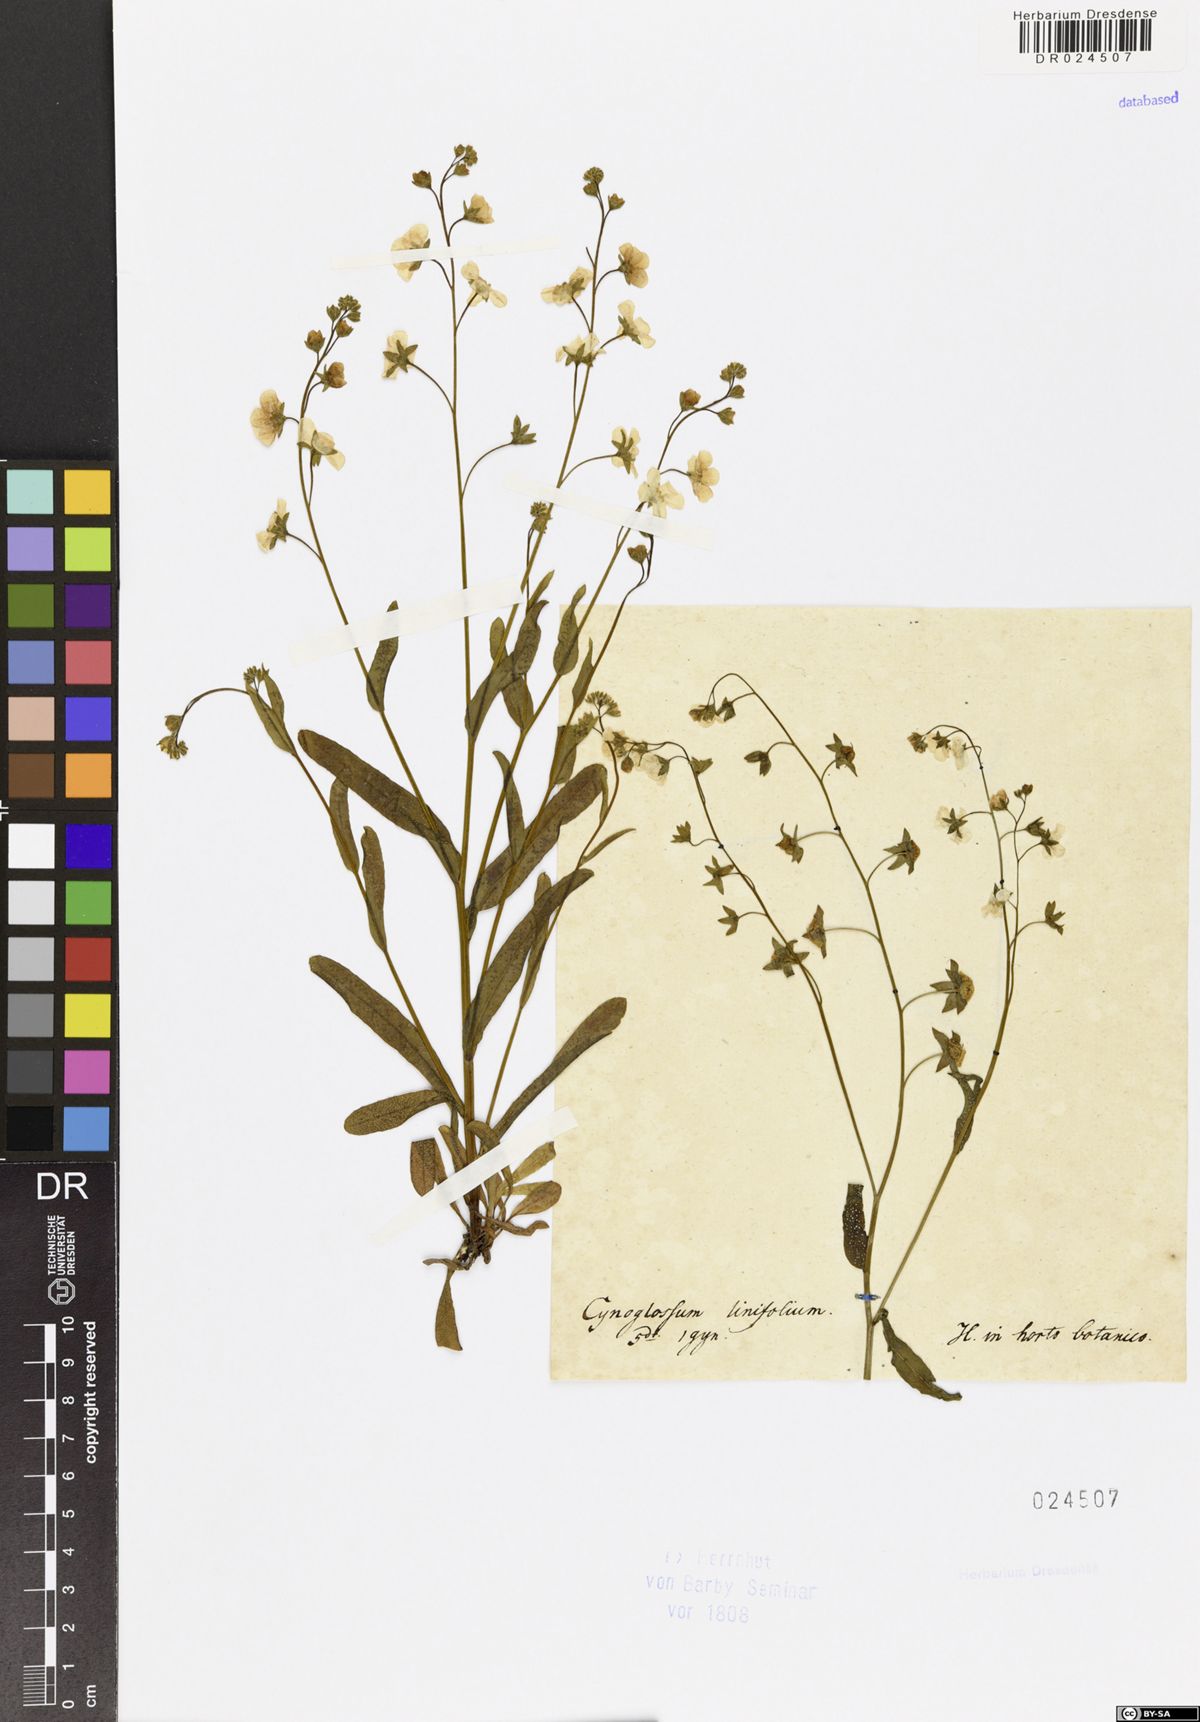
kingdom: Plantae
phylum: Tracheophyta
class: Magnoliopsida
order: Boraginales
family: Boraginaceae
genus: Iberodes
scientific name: Iberodes linifolia
